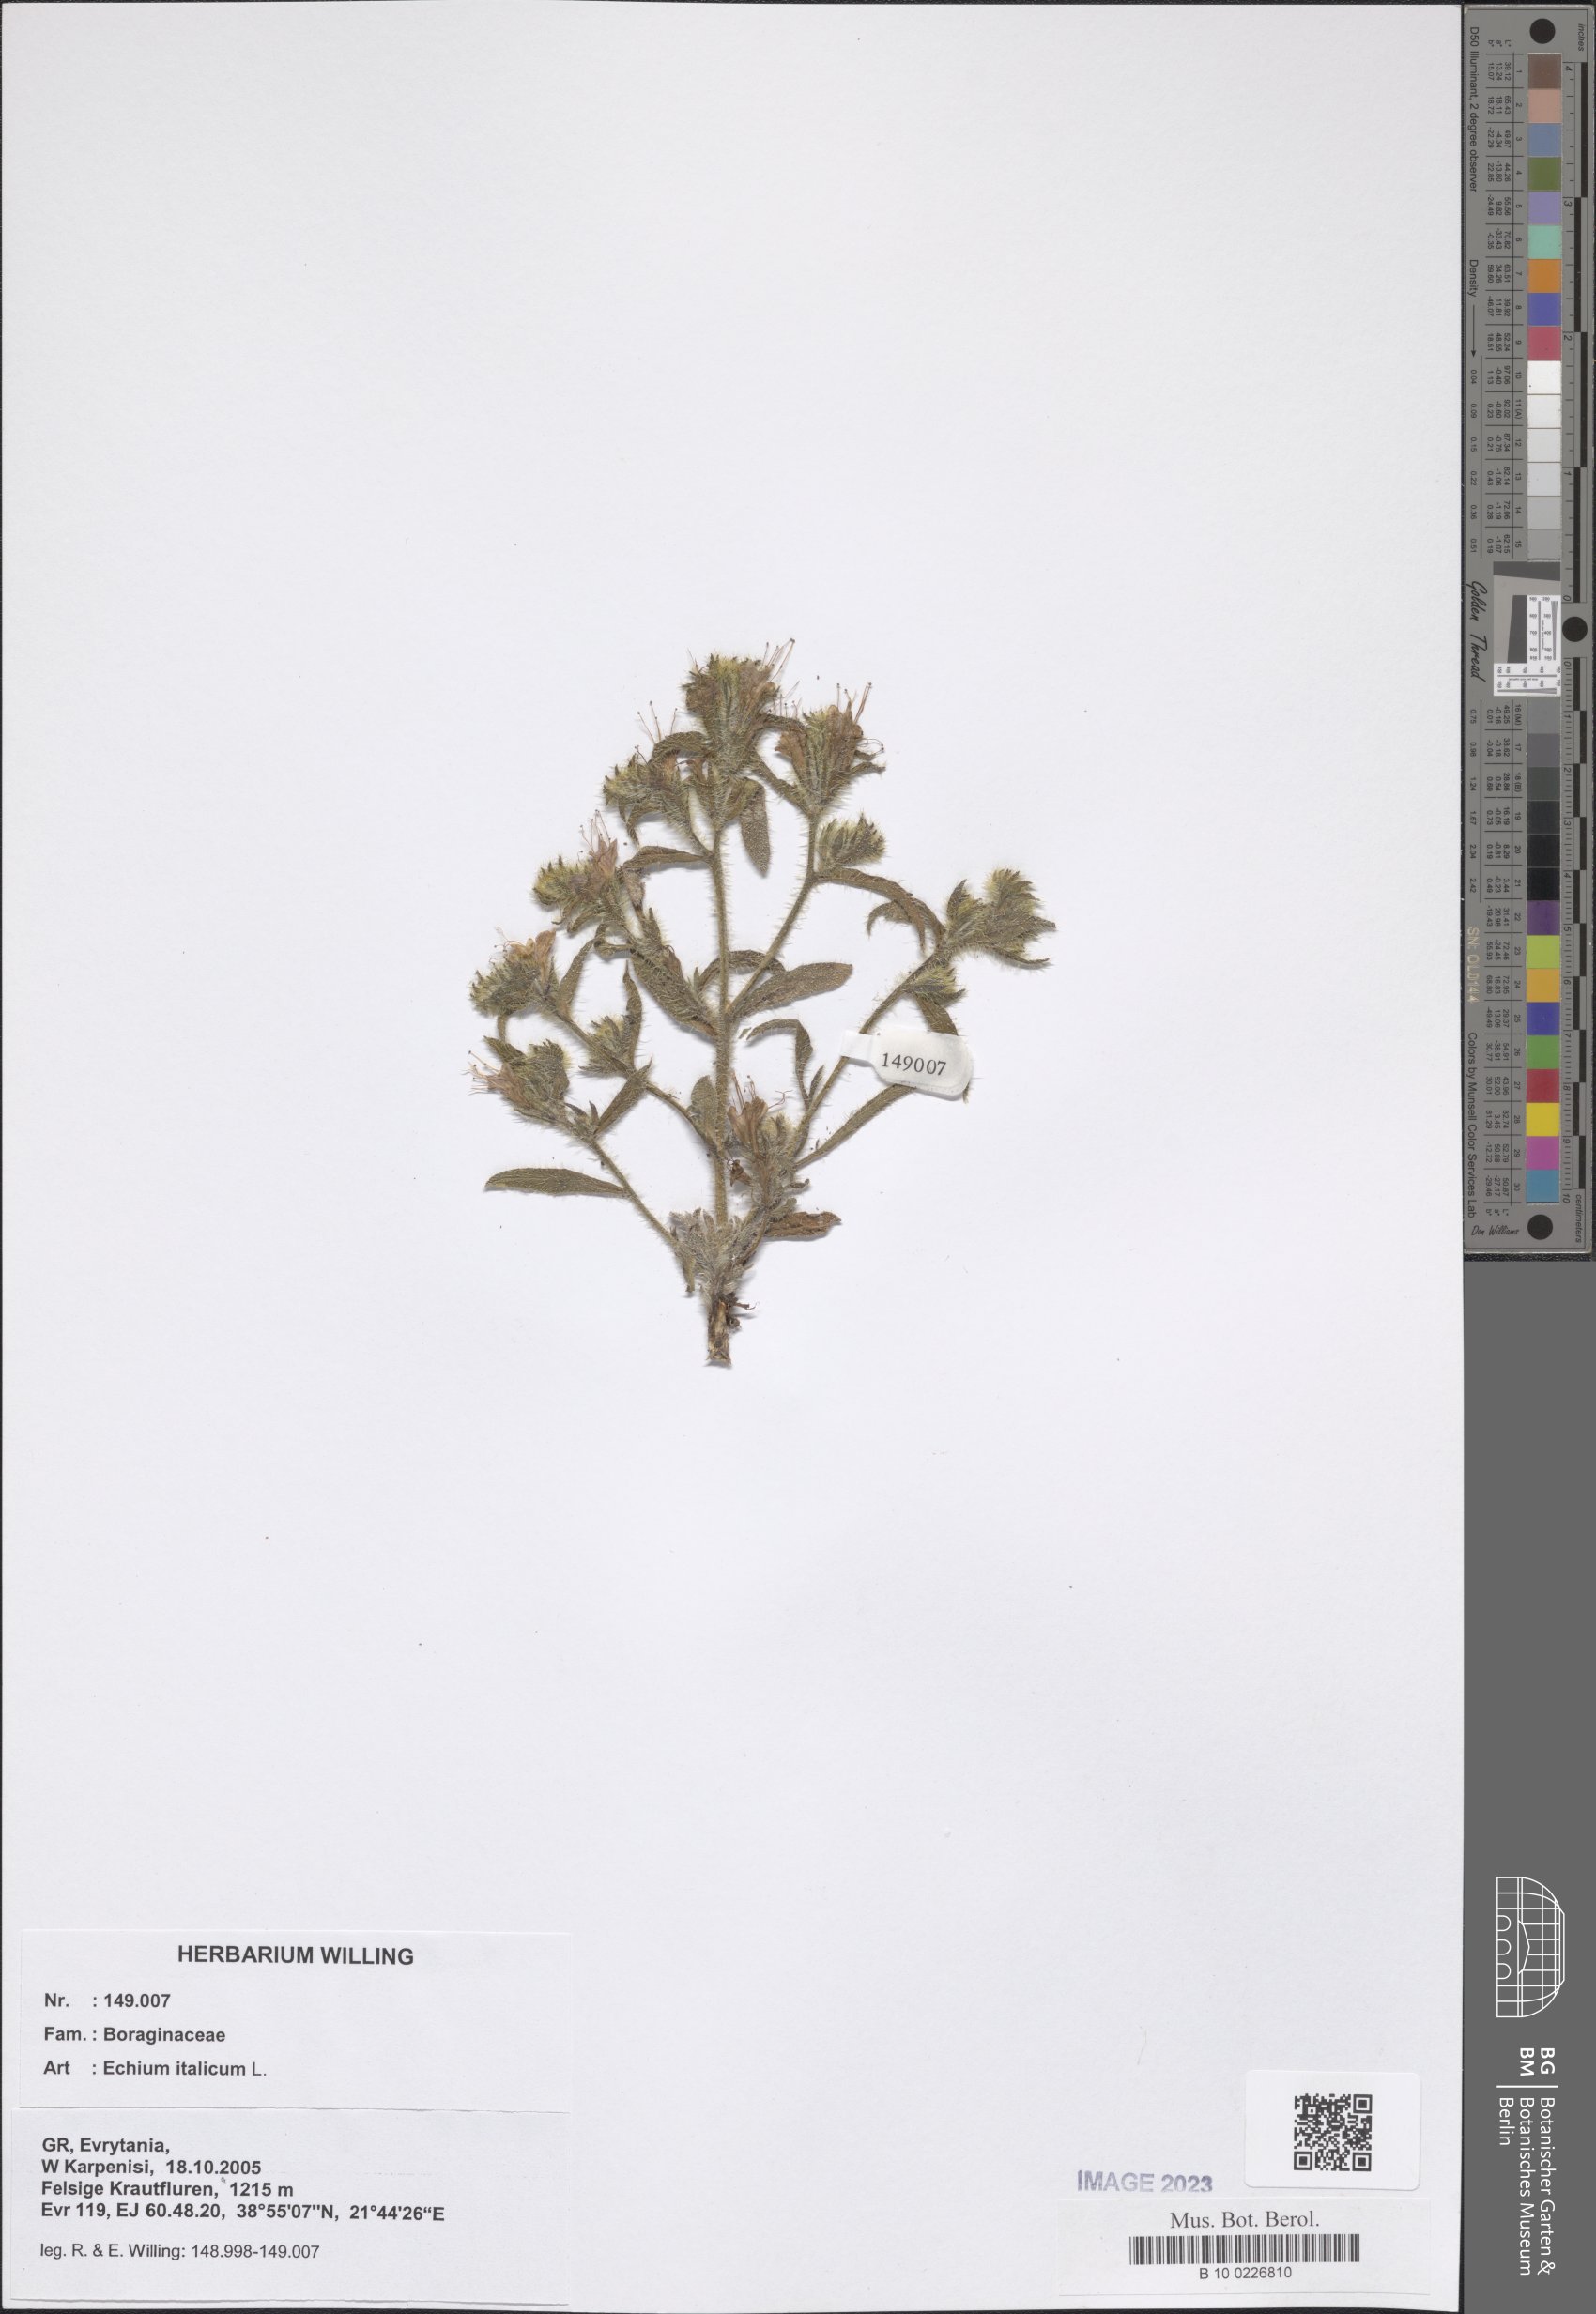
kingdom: Plantae
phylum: Tracheophyta
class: Magnoliopsida
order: Boraginales
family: Boraginaceae
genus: Echium
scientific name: Echium italicum
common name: Italian viper's bugloss
